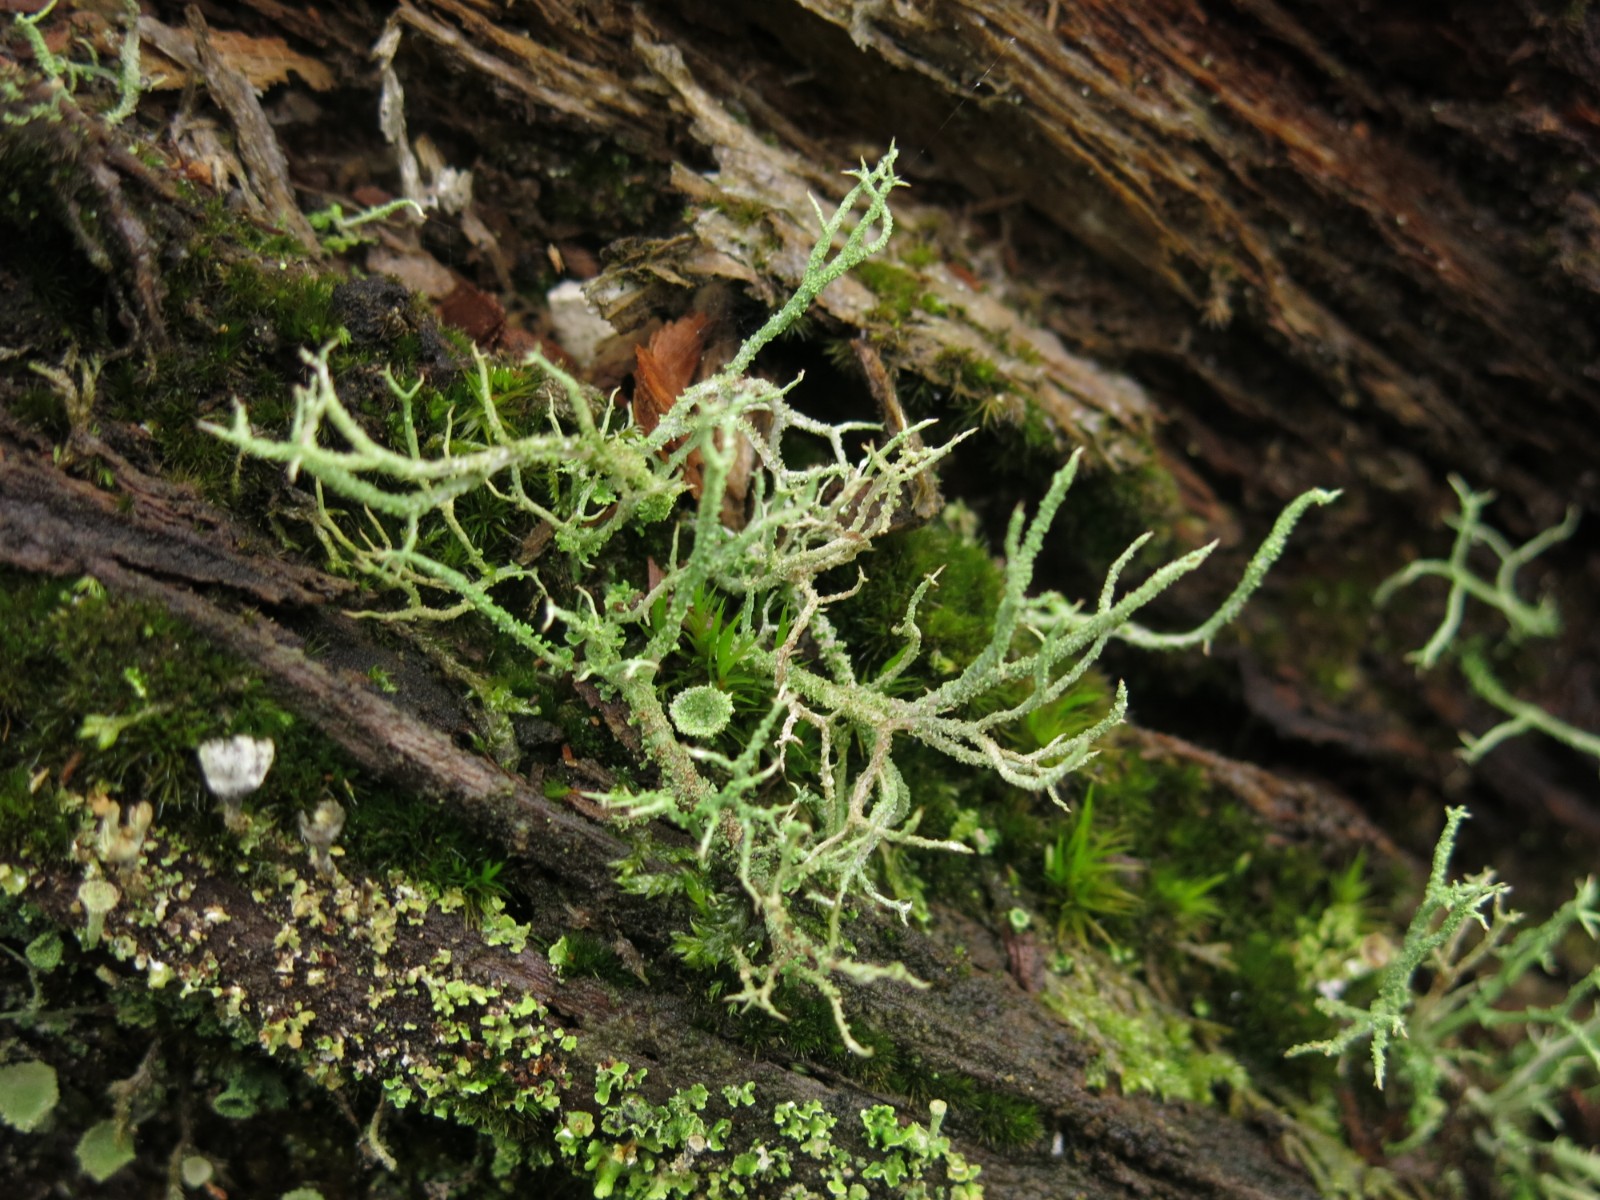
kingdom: Fungi
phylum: Ascomycota
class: Lecanoromycetes
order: Lecanorales
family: Cladoniaceae
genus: Cladonia
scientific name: Cladonia scabriuscula
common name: ru bægerlav
